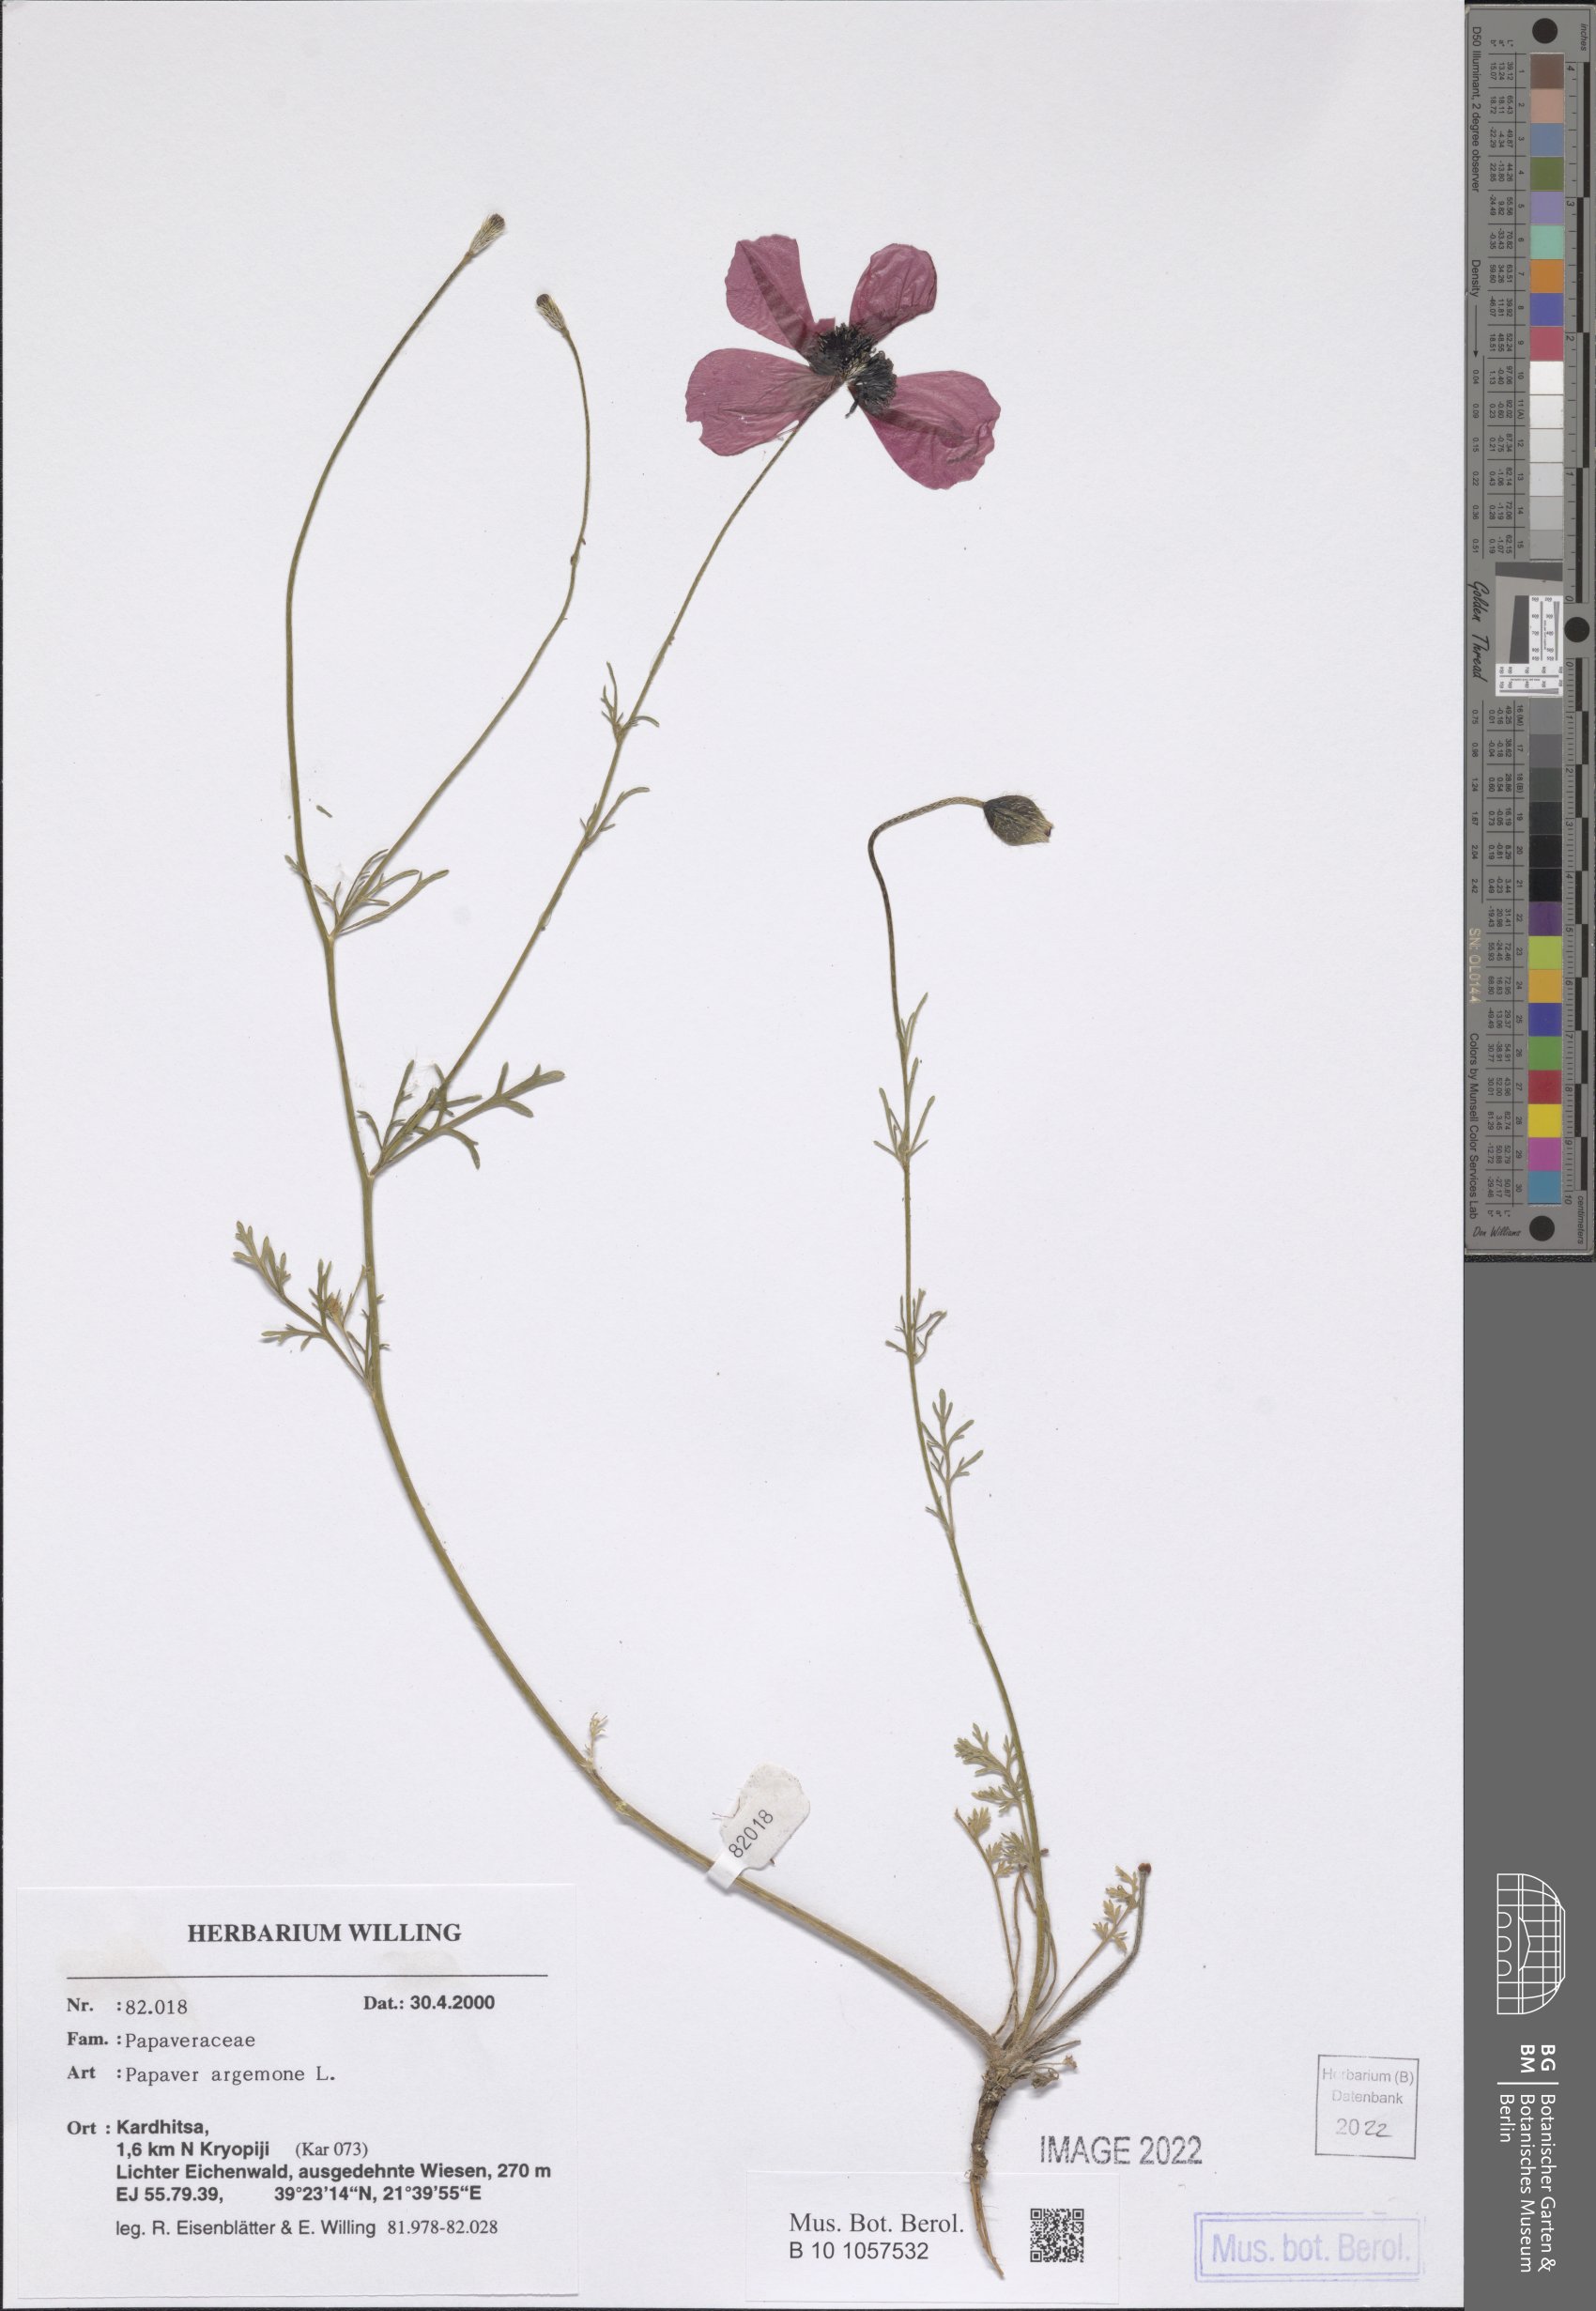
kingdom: Plantae
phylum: Tracheophyta
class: Magnoliopsida
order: Ranunculales
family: Papaveraceae
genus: Roemeria
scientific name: Roemeria argemone
